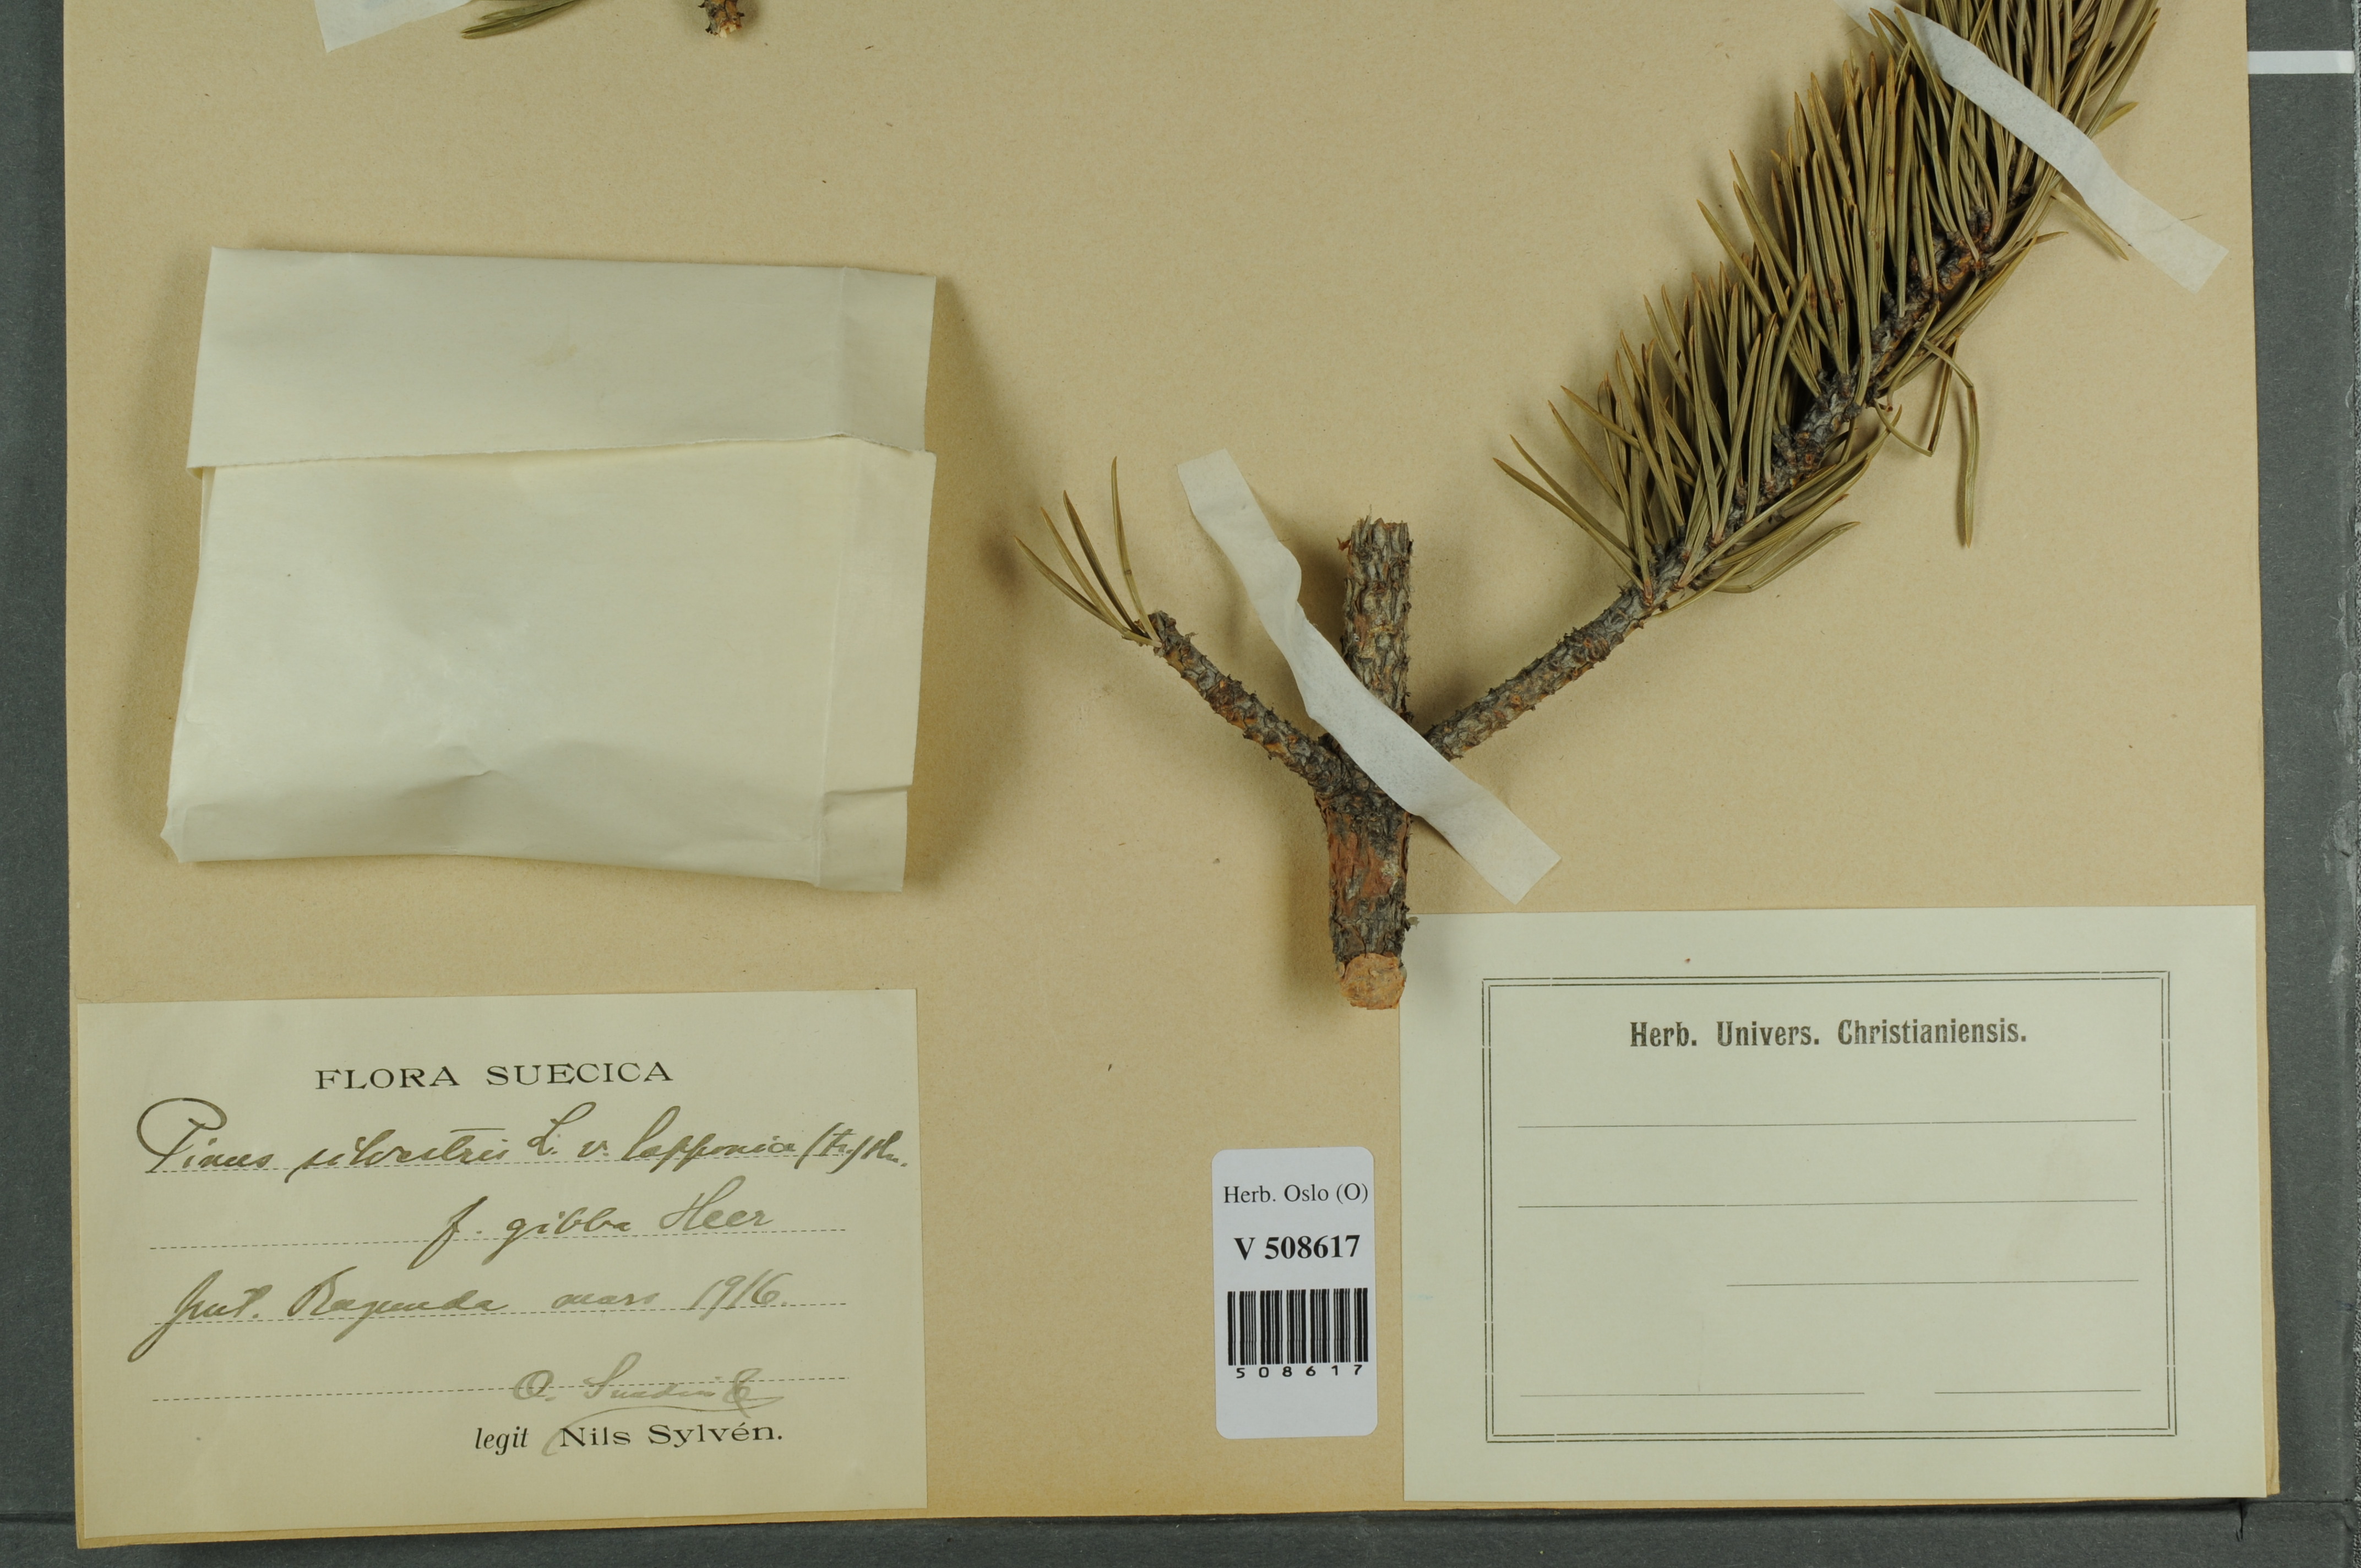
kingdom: Plantae
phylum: Tracheophyta
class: Pinopsida
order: Pinales
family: Pinaceae
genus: Pinus
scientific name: Pinus sylvestris
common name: Scots pine
